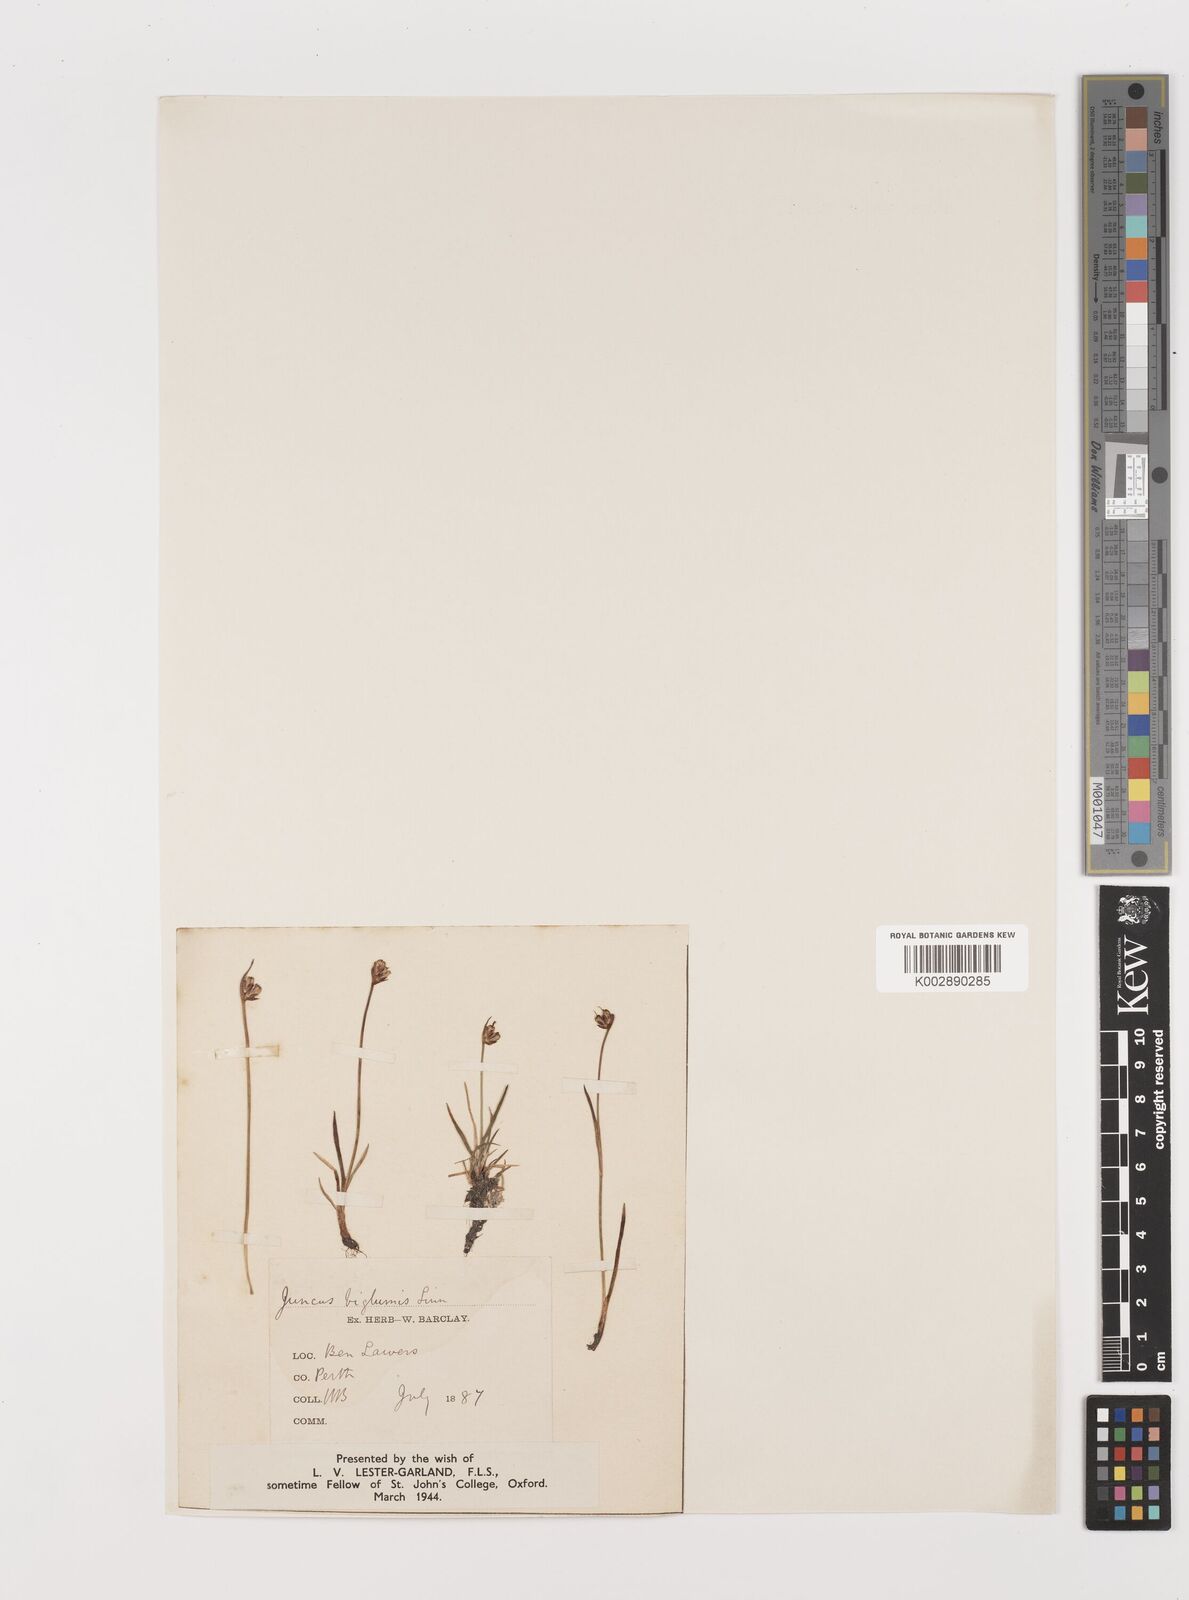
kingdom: Plantae
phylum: Tracheophyta
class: Liliopsida
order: Poales
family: Juncaceae
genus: Juncus
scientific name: Juncus biglumis
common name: Two-flowered rush
